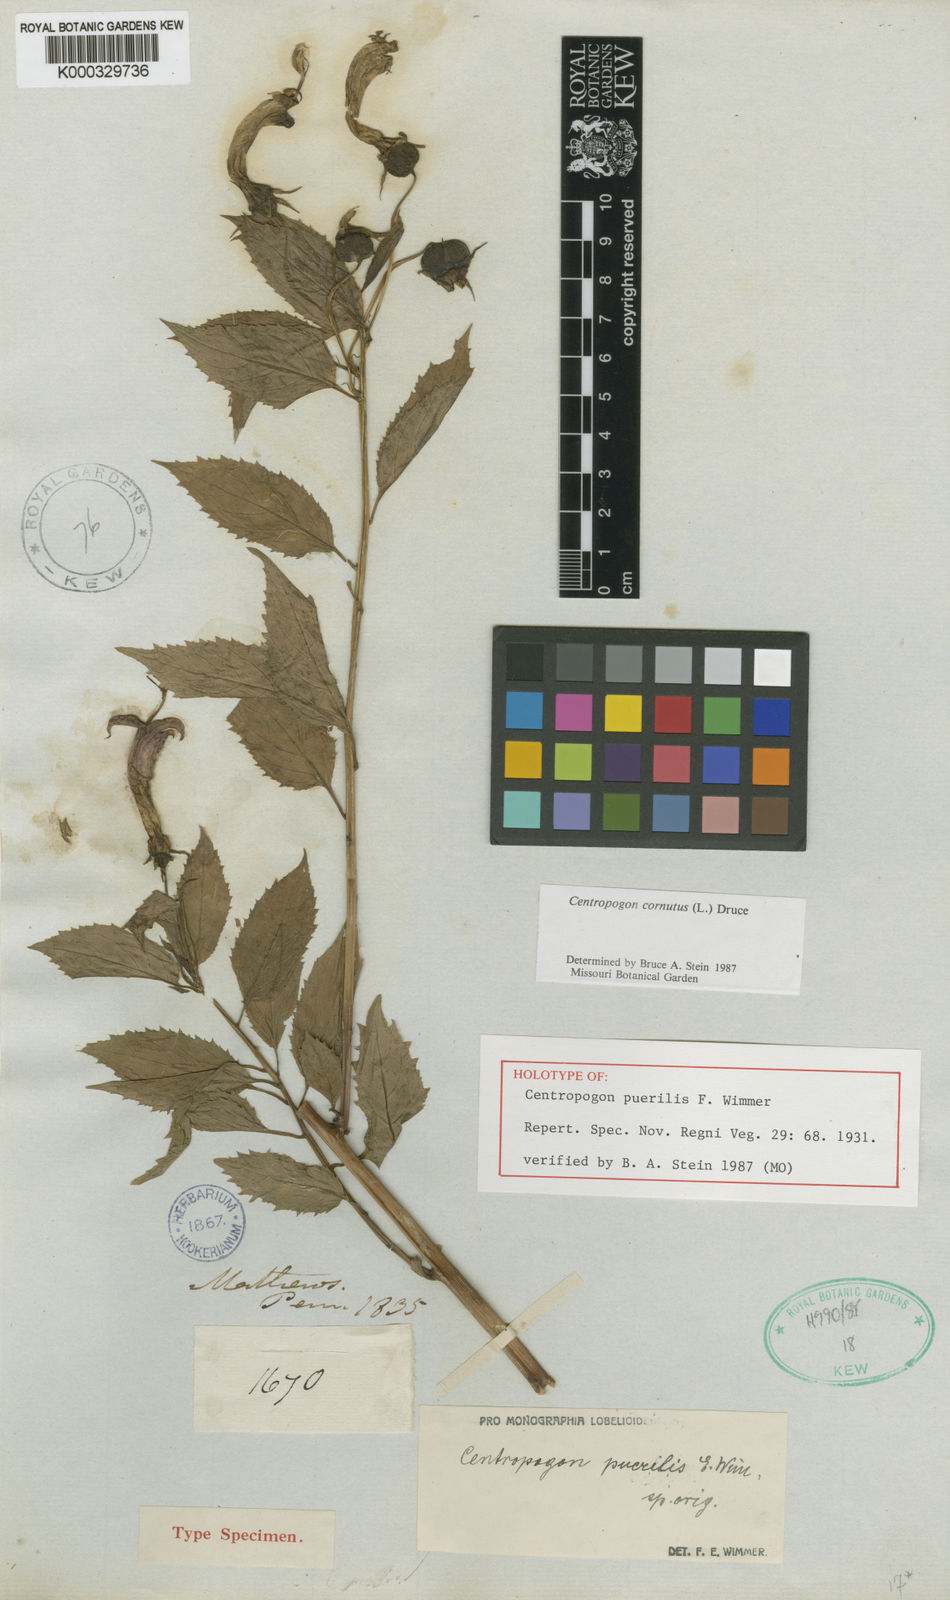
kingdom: Plantae
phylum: Tracheophyta
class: Magnoliopsida
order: Asterales
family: Campanulaceae
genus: Centropogon
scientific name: Centropogon cornutus
